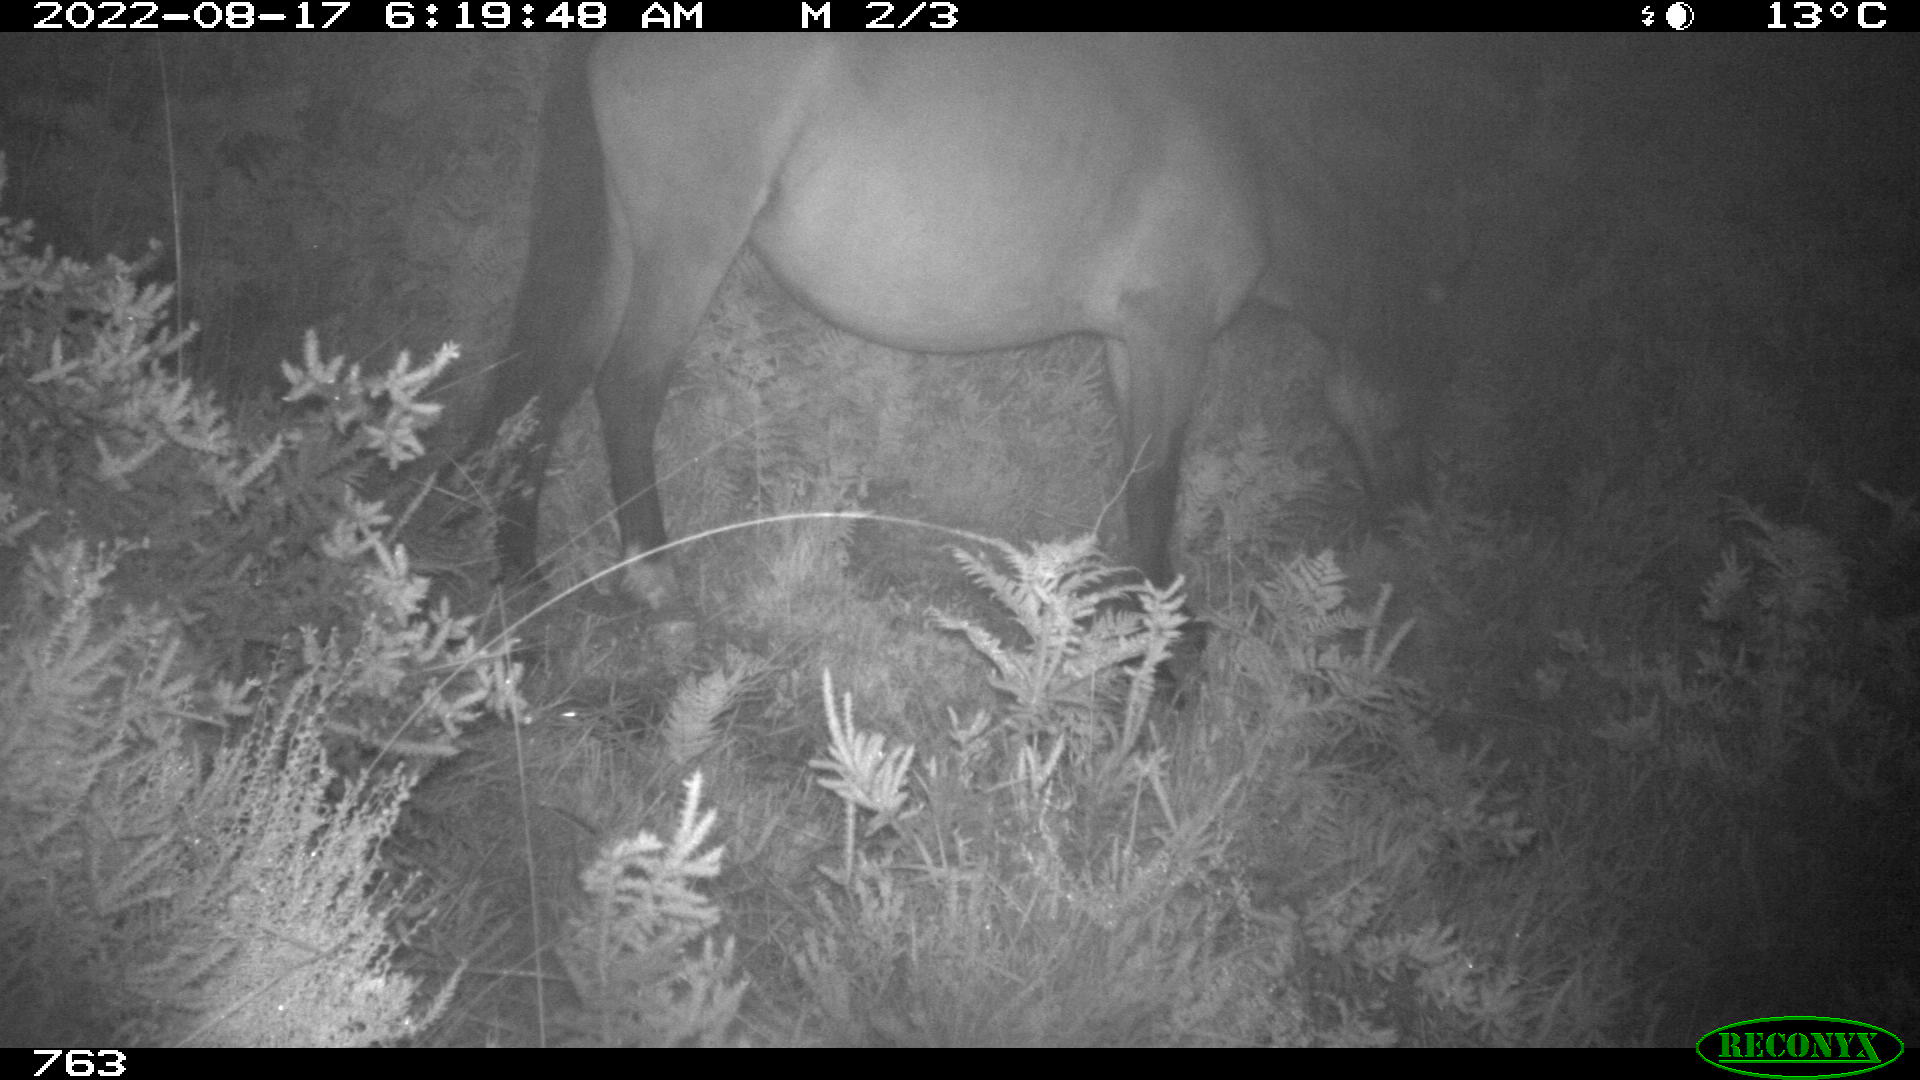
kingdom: Animalia
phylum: Chordata
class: Mammalia
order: Perissodactyla
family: Equidae
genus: Equus
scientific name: Equus caballus
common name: Horse
